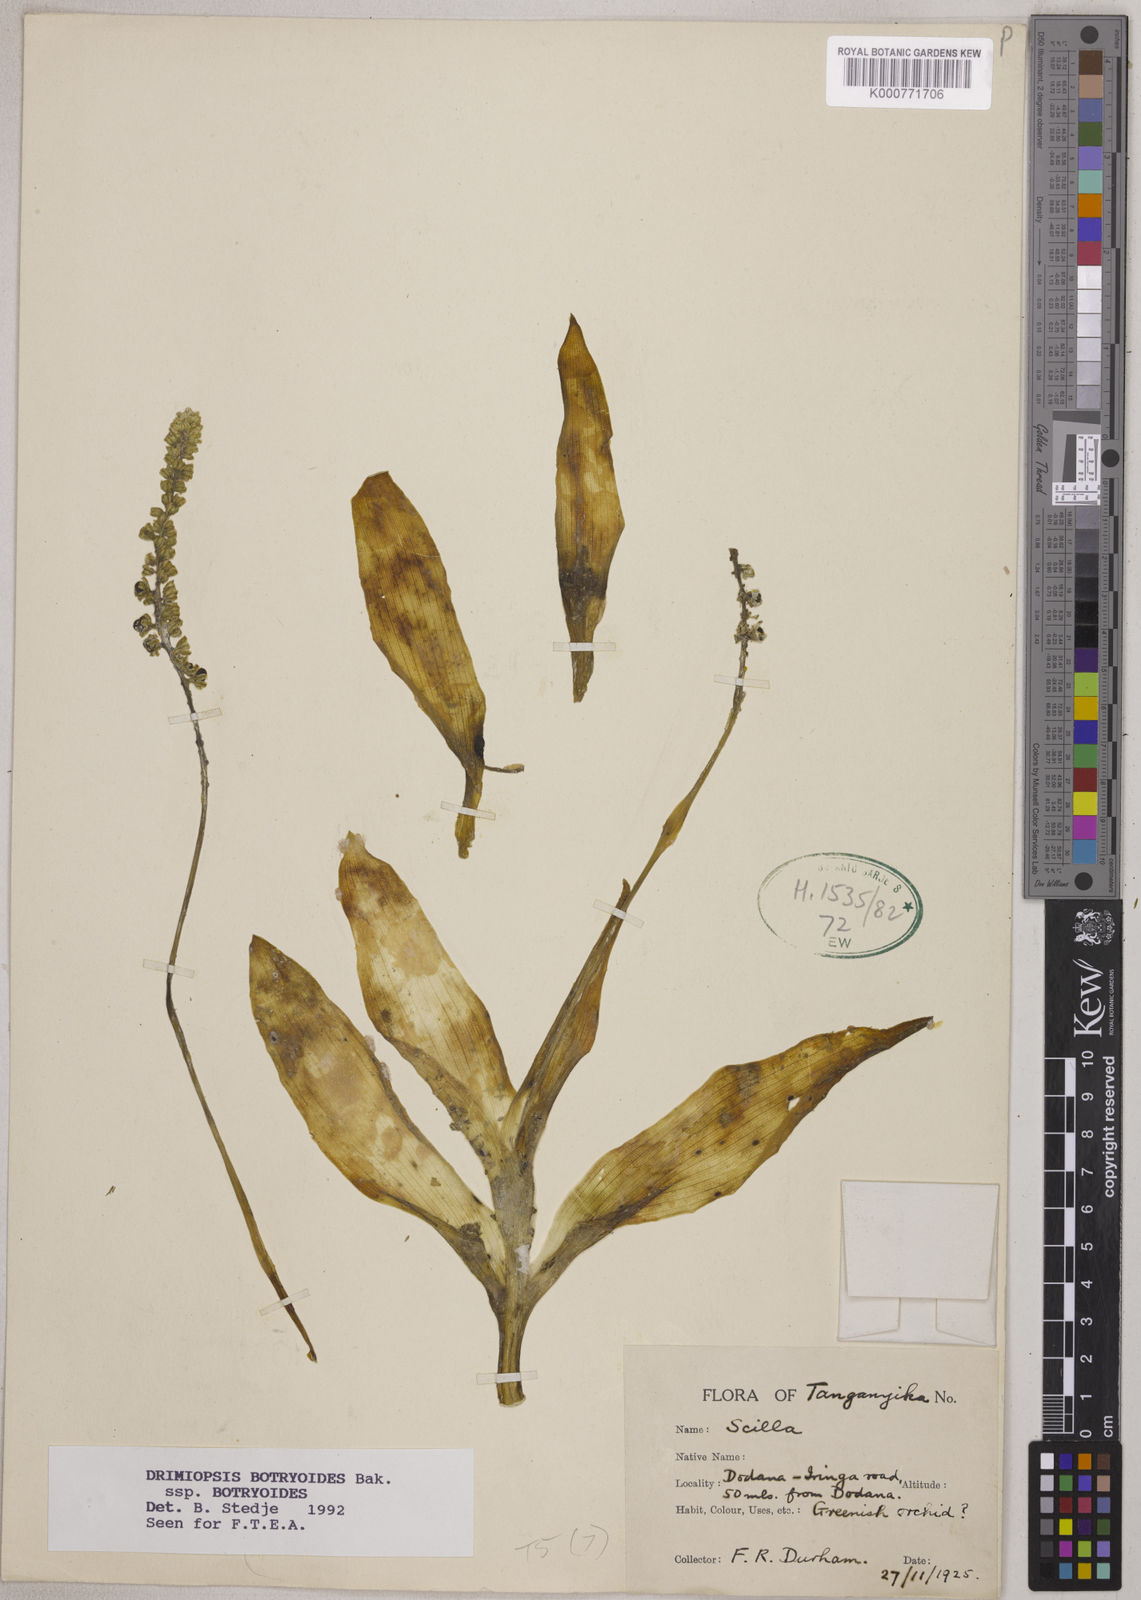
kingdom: Plantae
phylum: Tracheophyta
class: Liliopsida
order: Asparagales
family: Asparagaceae
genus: Drimiopsis
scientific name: Drimiopsis botryoides
